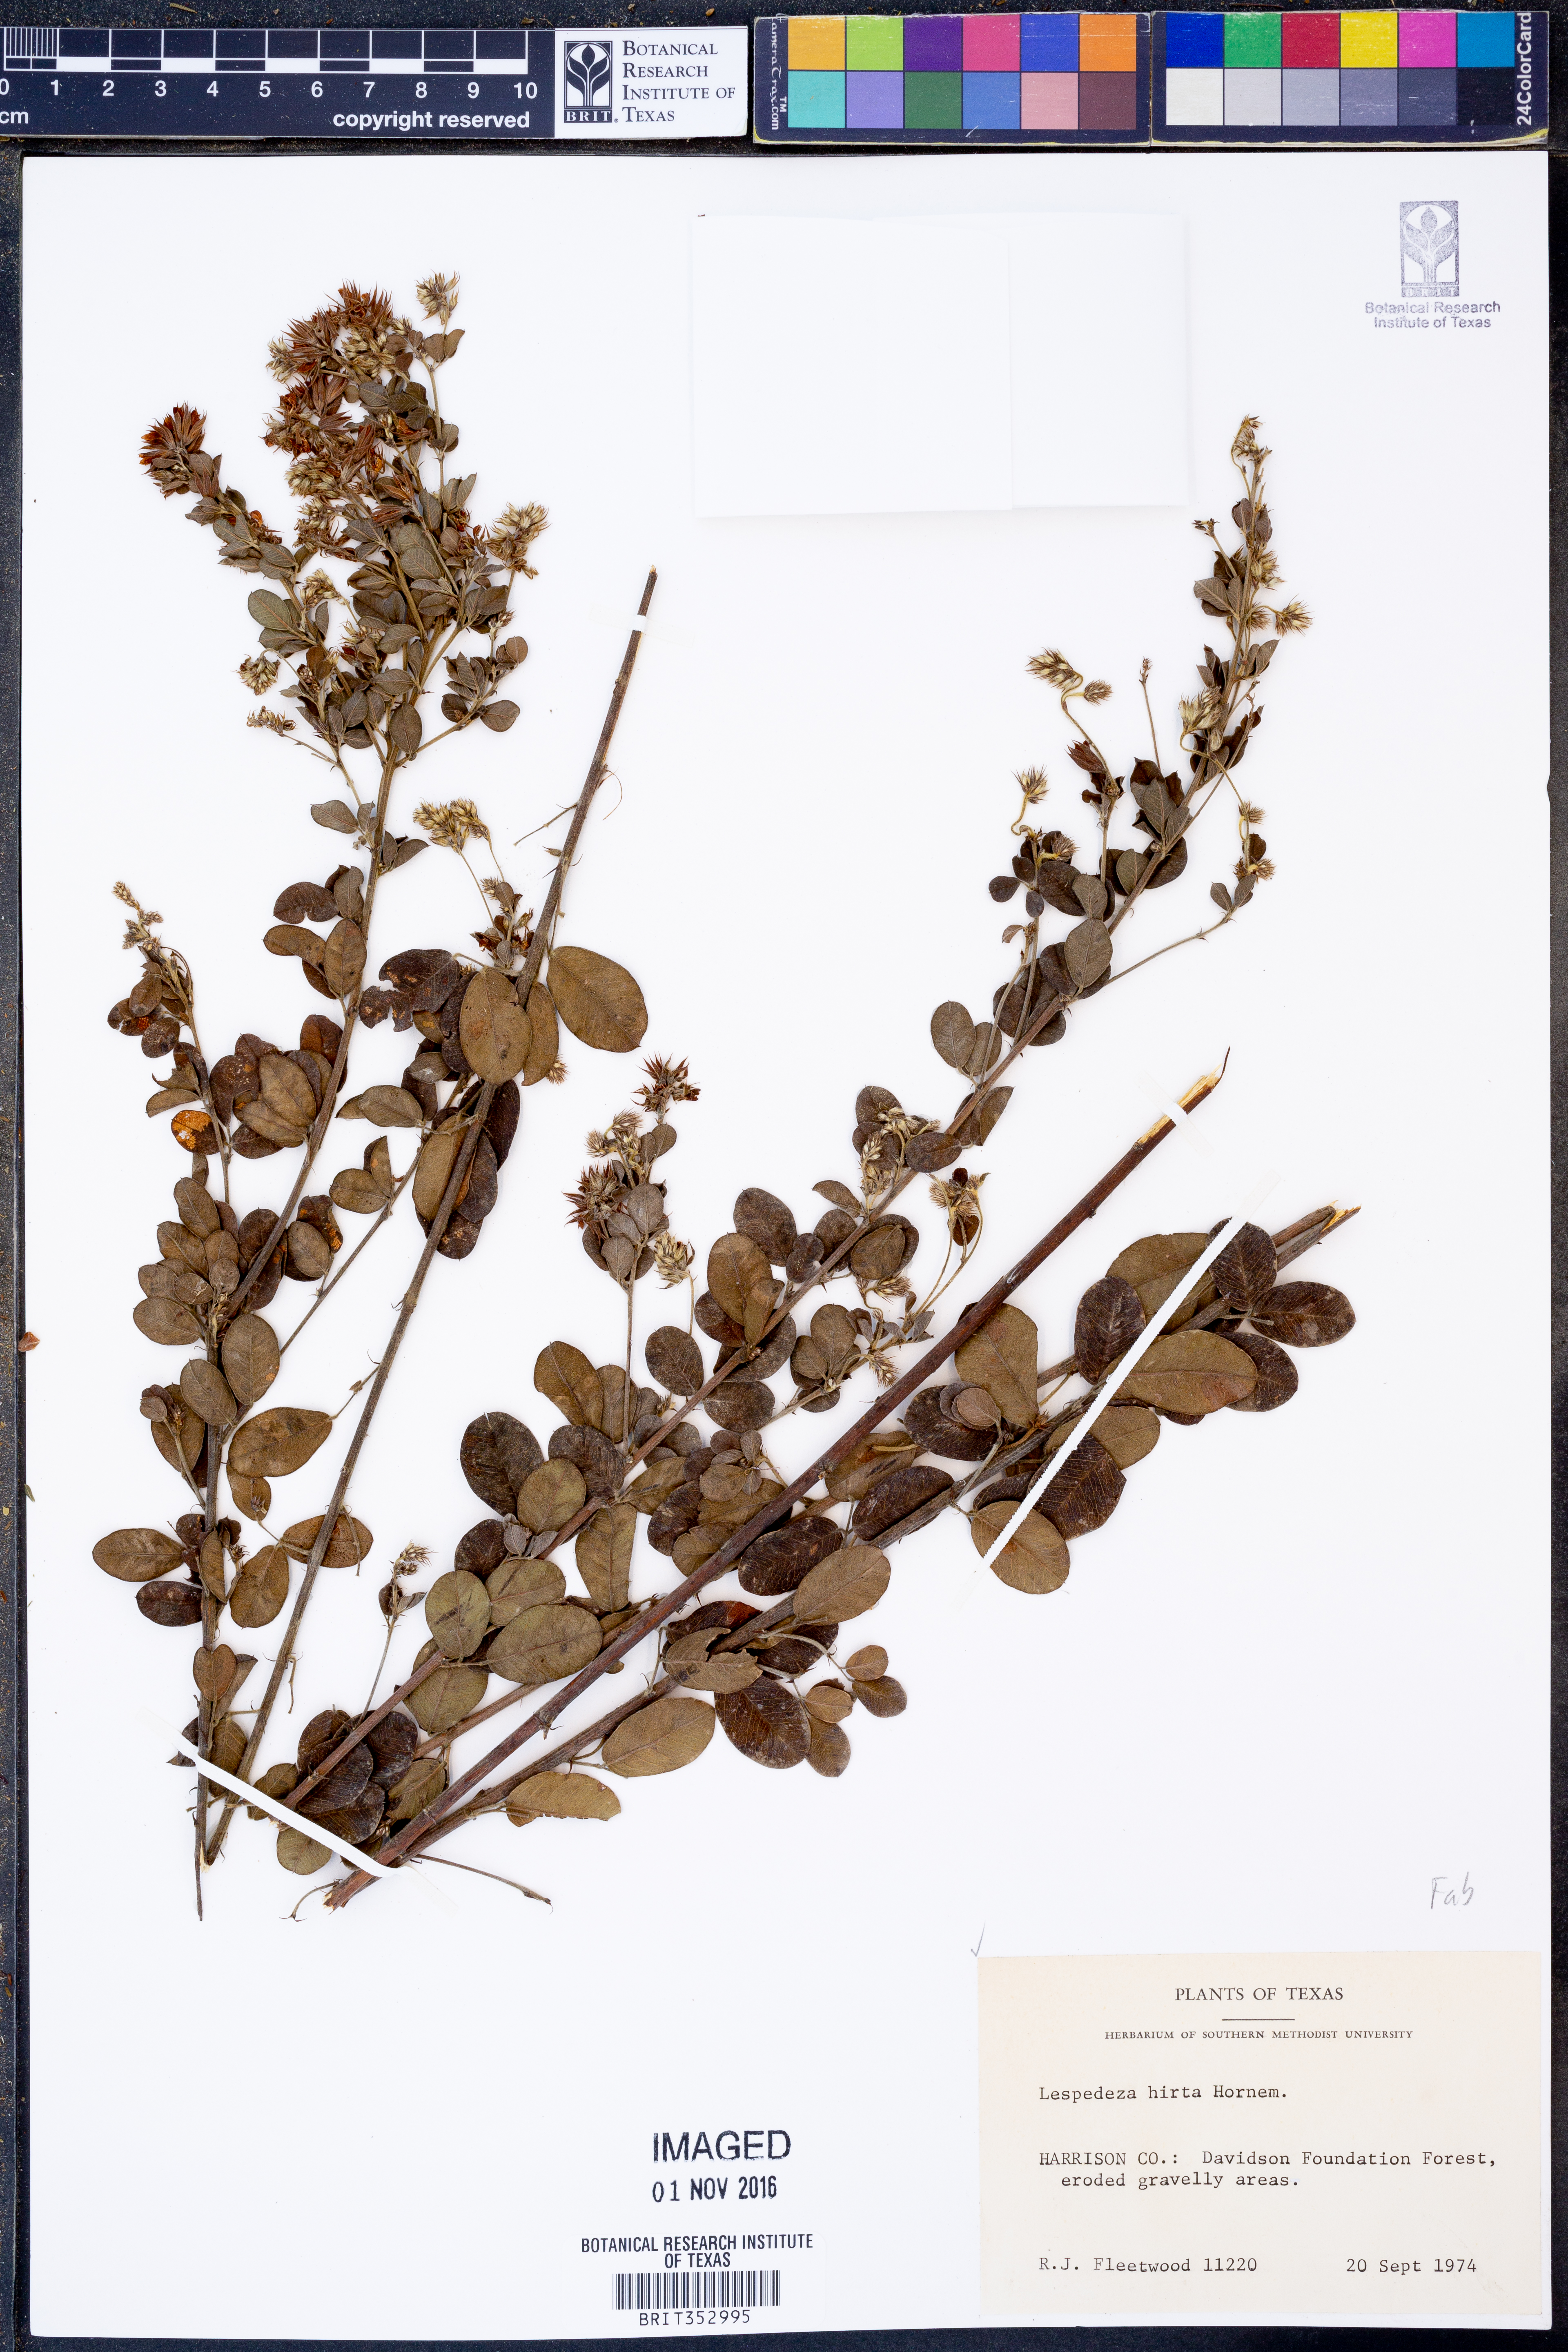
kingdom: Plantae
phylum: Tracheophyta
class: Magnoliopsida
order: Fabales
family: Fabaceae
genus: Lespedeza
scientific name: Lespedeza hirta
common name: Hairy lespedeza
